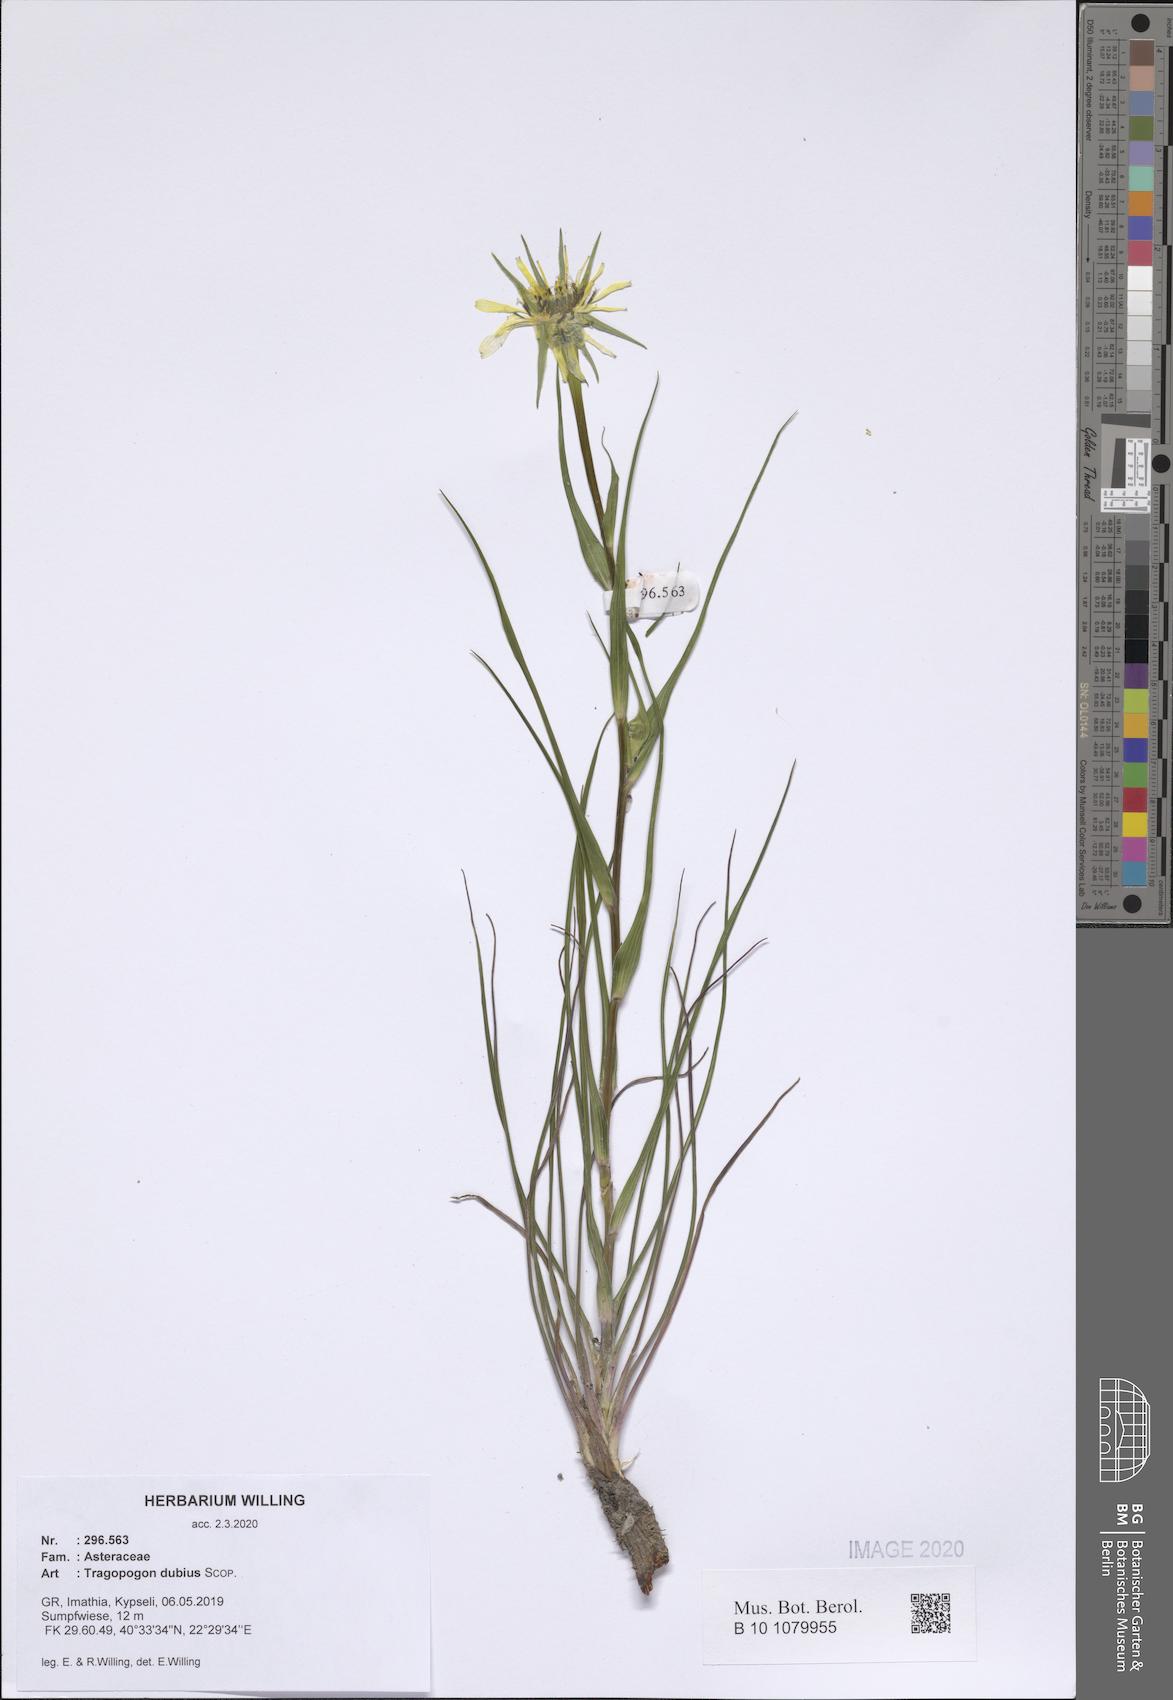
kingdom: Plantae
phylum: Tracheophyta
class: Magnoliopsida
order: Asterales
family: Asteraceae
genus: Tragopogon
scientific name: Tragopogon dubius
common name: Yellow salsify
